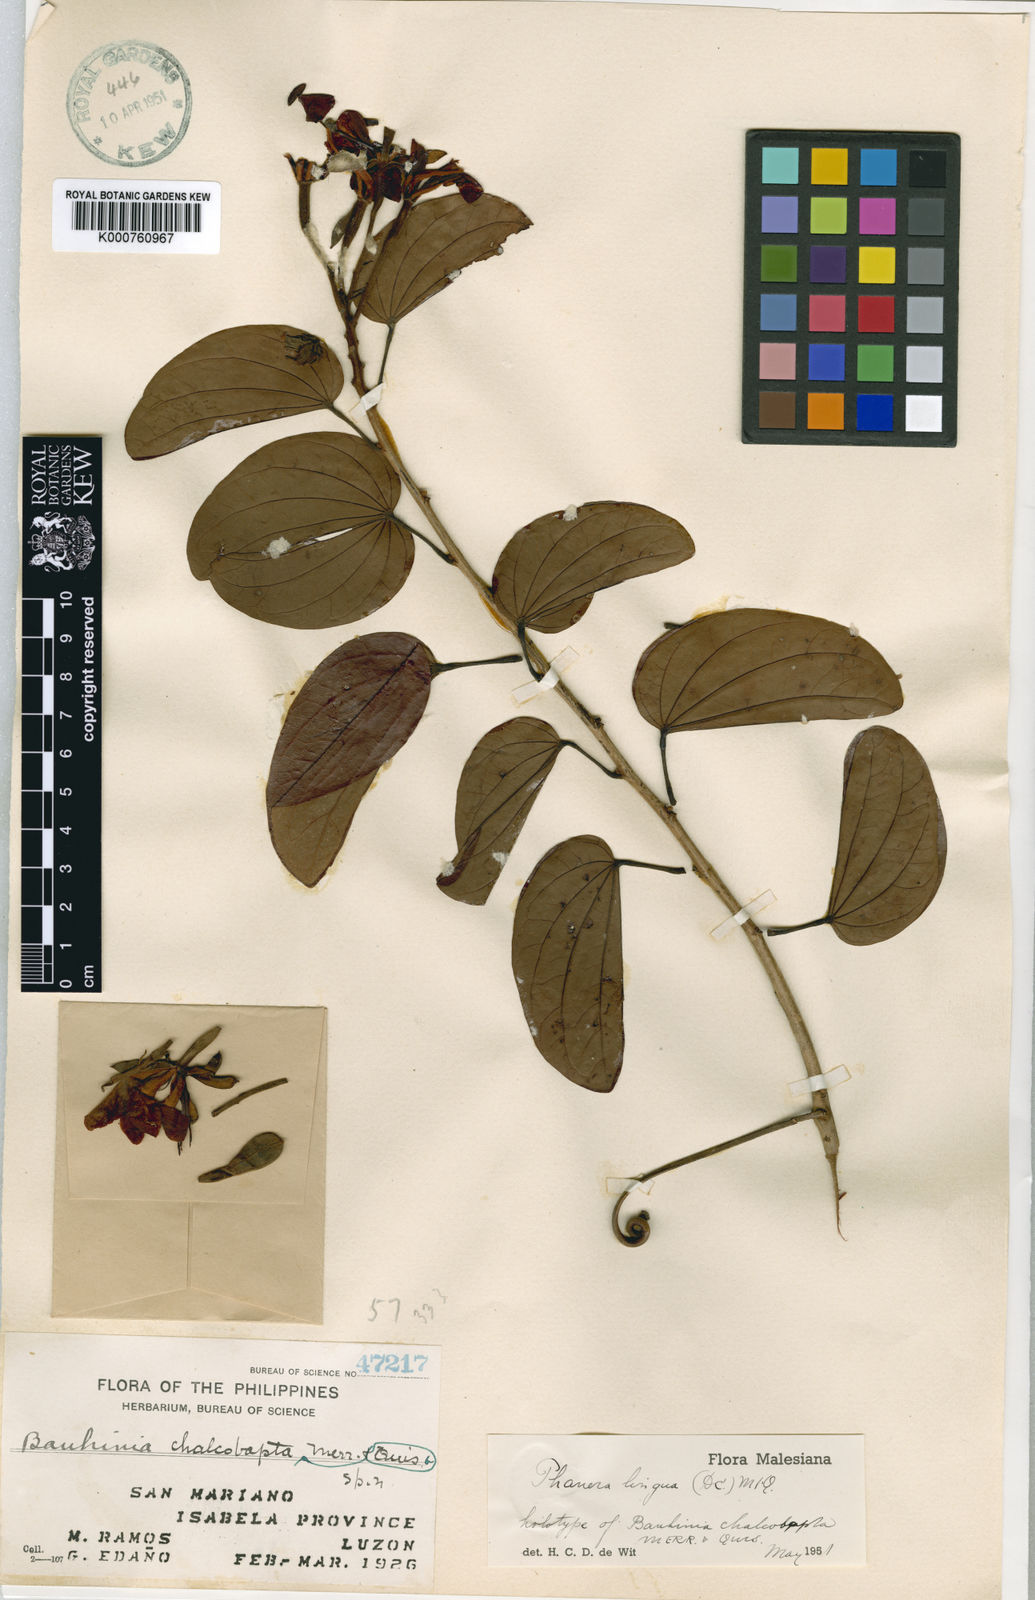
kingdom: Plantae
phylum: Tracheophyta
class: Magnoliopsida
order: Fabales
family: Fabaceae
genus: Phanera
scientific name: Phanera lingua
